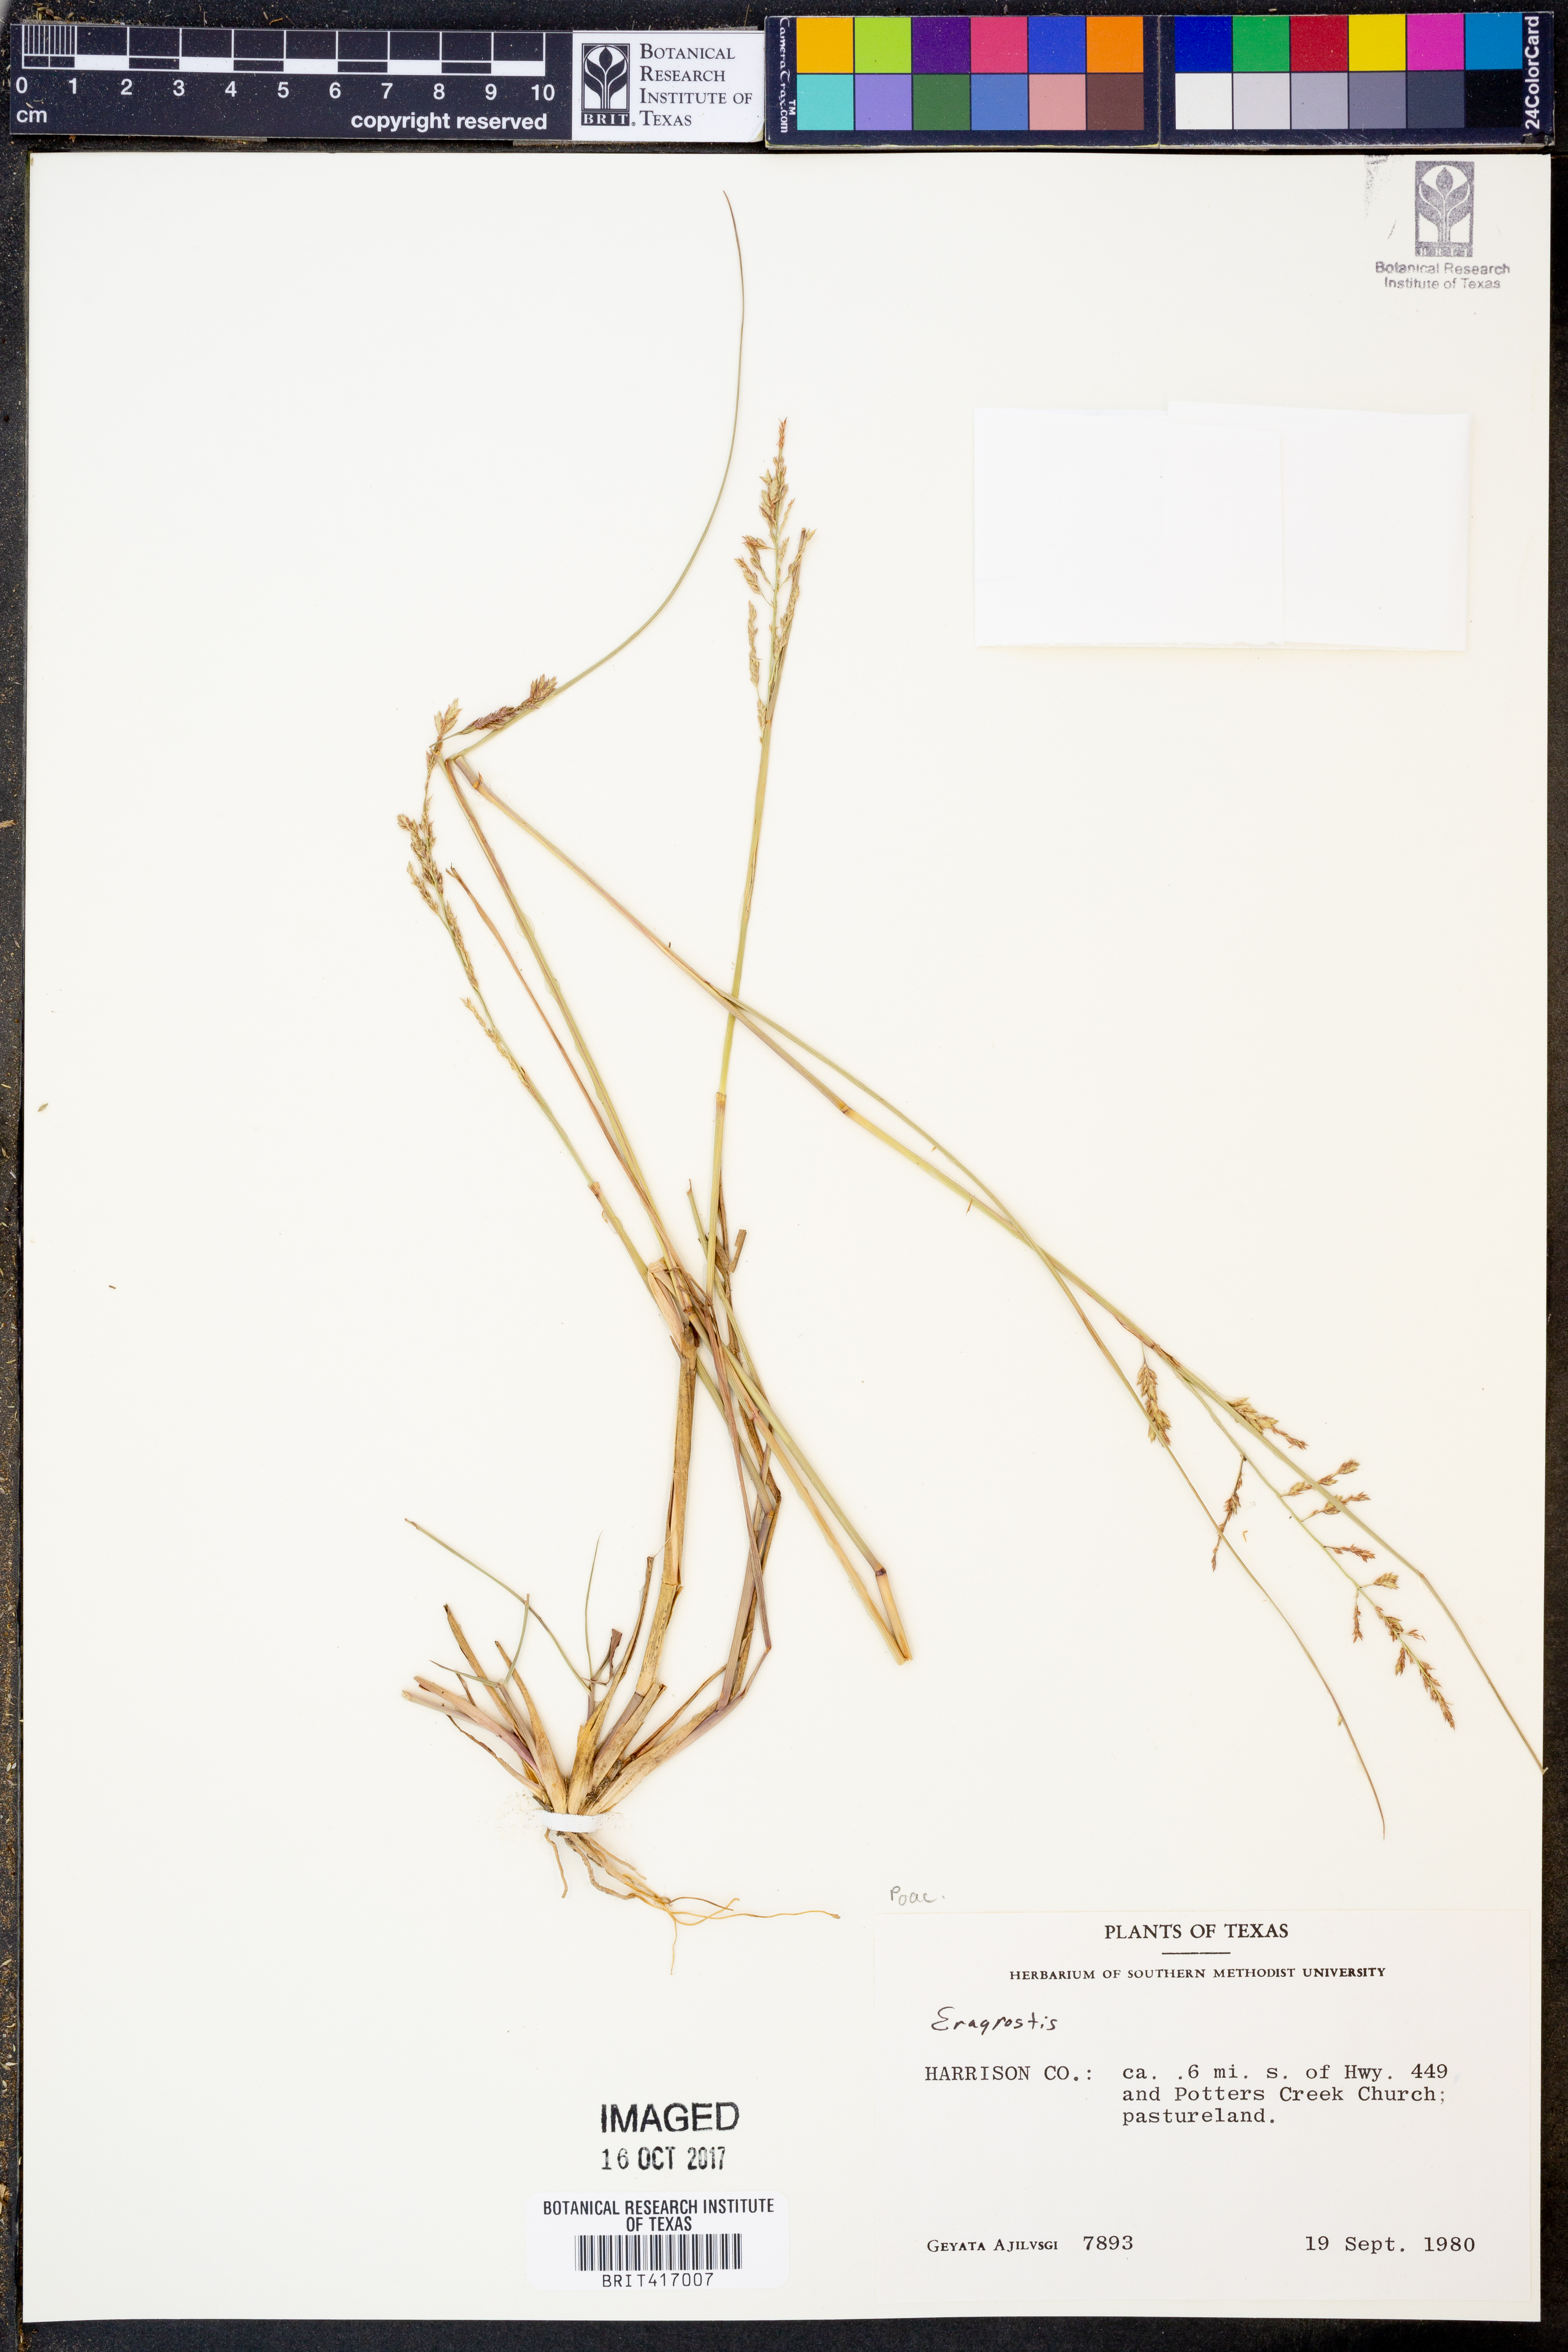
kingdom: Plantae
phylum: Tracheophyta
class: Liliopsida
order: Poales
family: Poaceae
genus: Eragrostis
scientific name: Eragrostis
